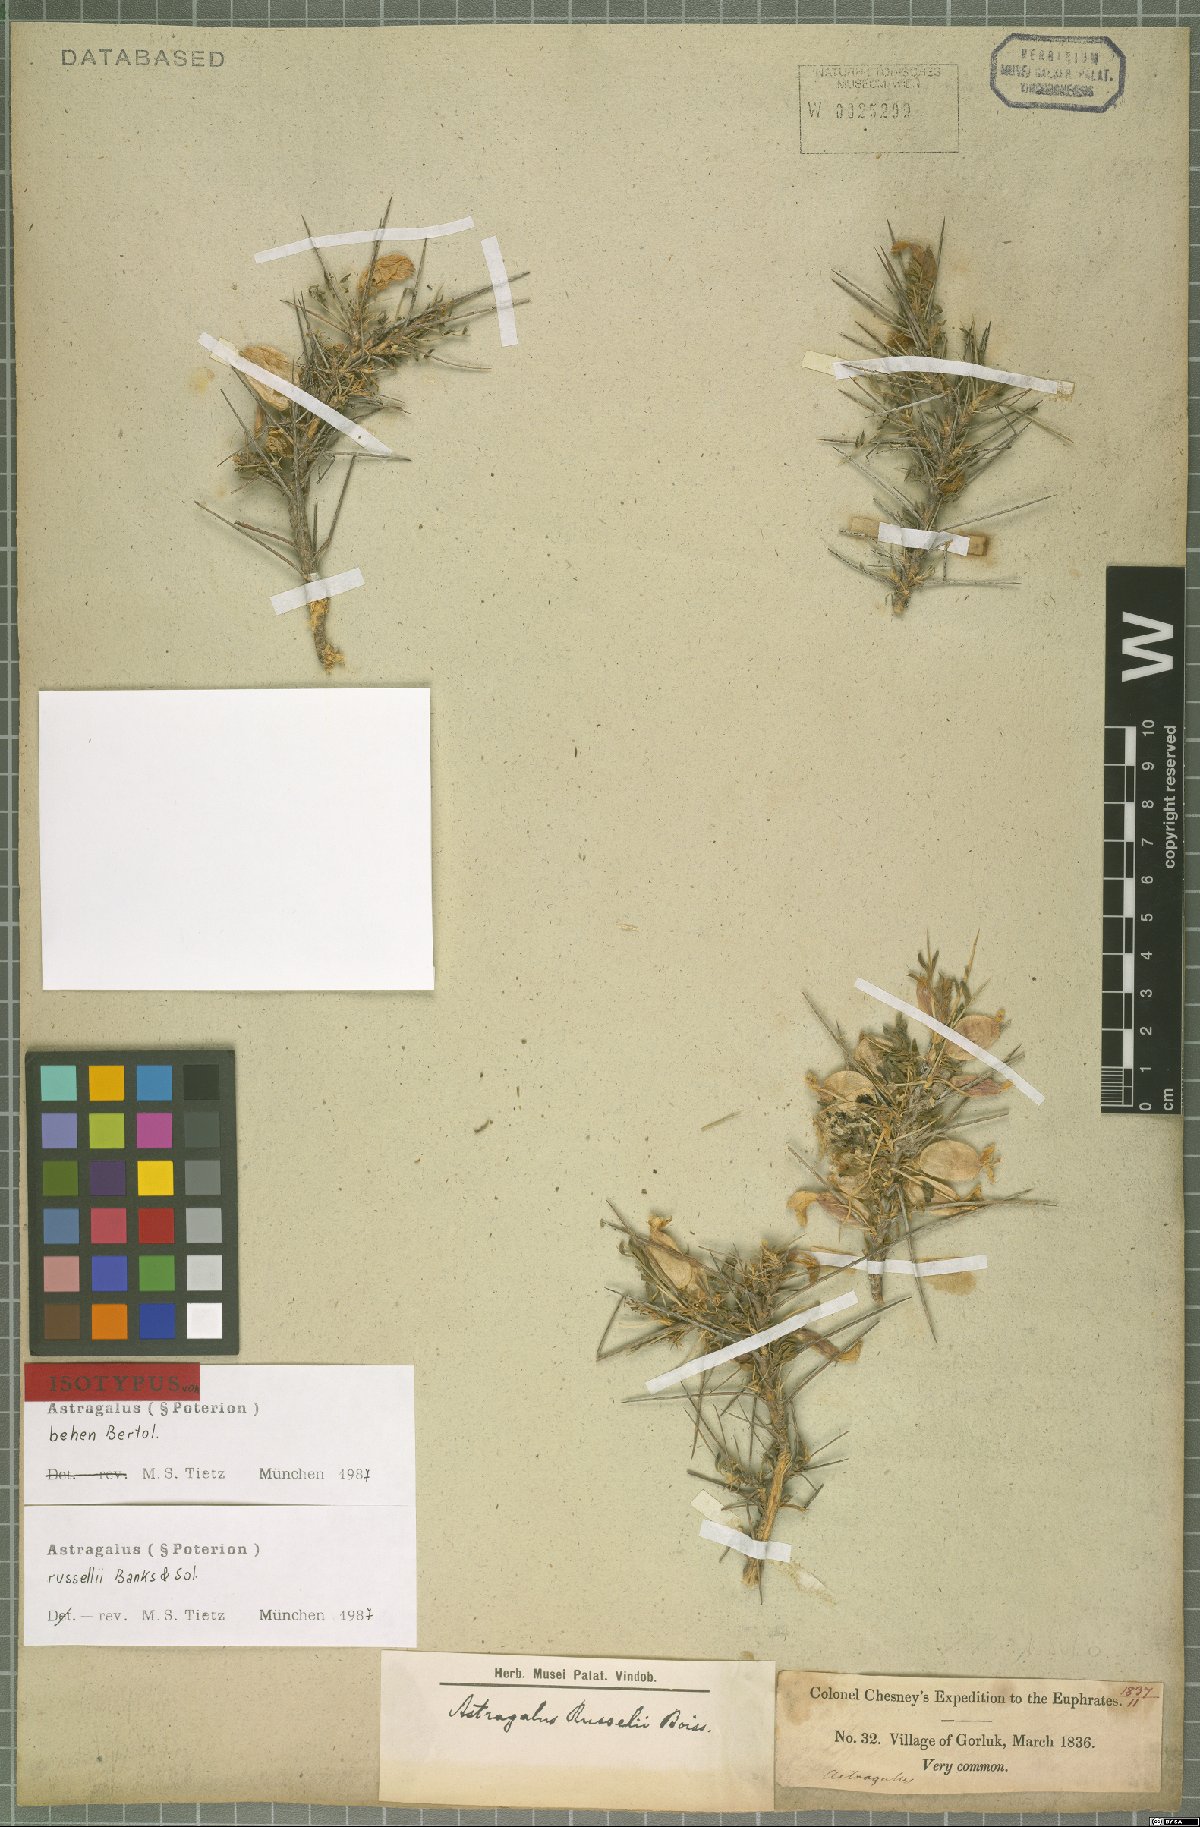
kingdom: Plantae
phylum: Tracheophyta
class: Magnoliopsida
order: Fabales
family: Fabaceae
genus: Astragalus
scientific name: Astragalus russellii
